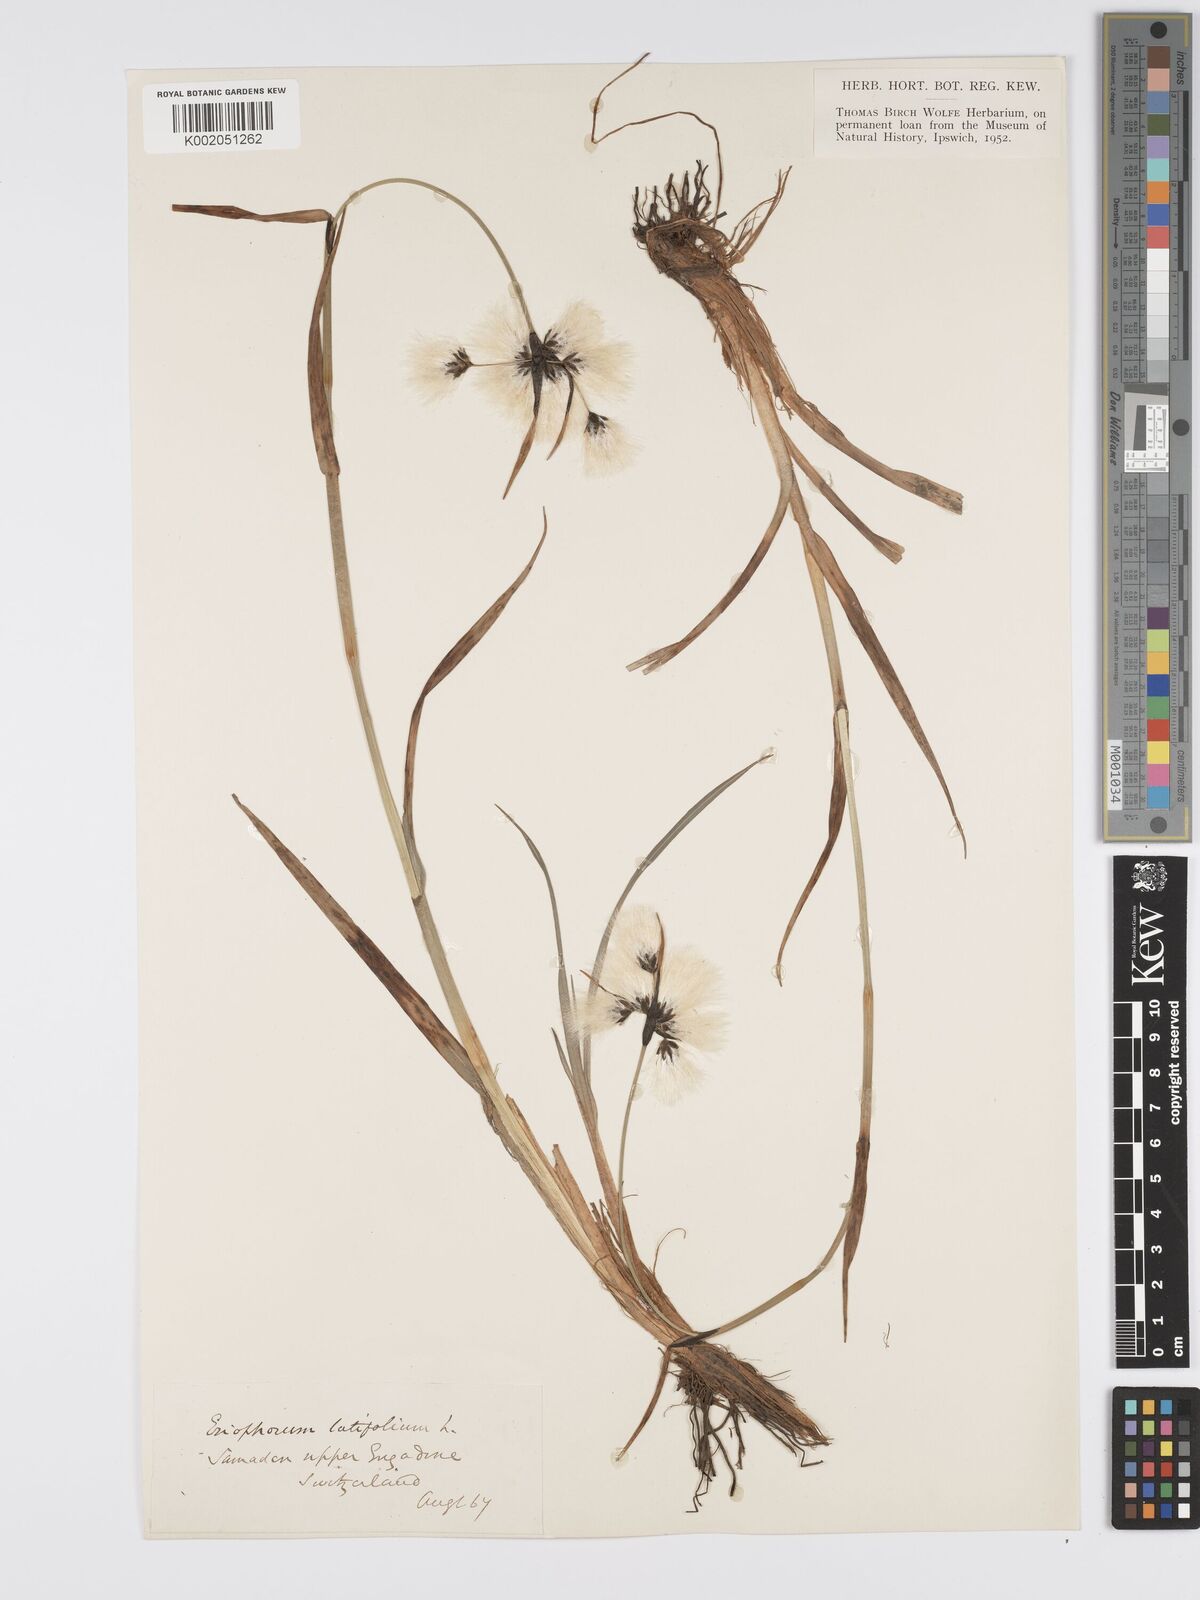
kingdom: Plantae
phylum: Tracheophyta
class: Liliopsida
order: Poales
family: Cyperaceae
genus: Eriophorum
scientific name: Eriophorum latifolium
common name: Broad-leaved cottongrass
